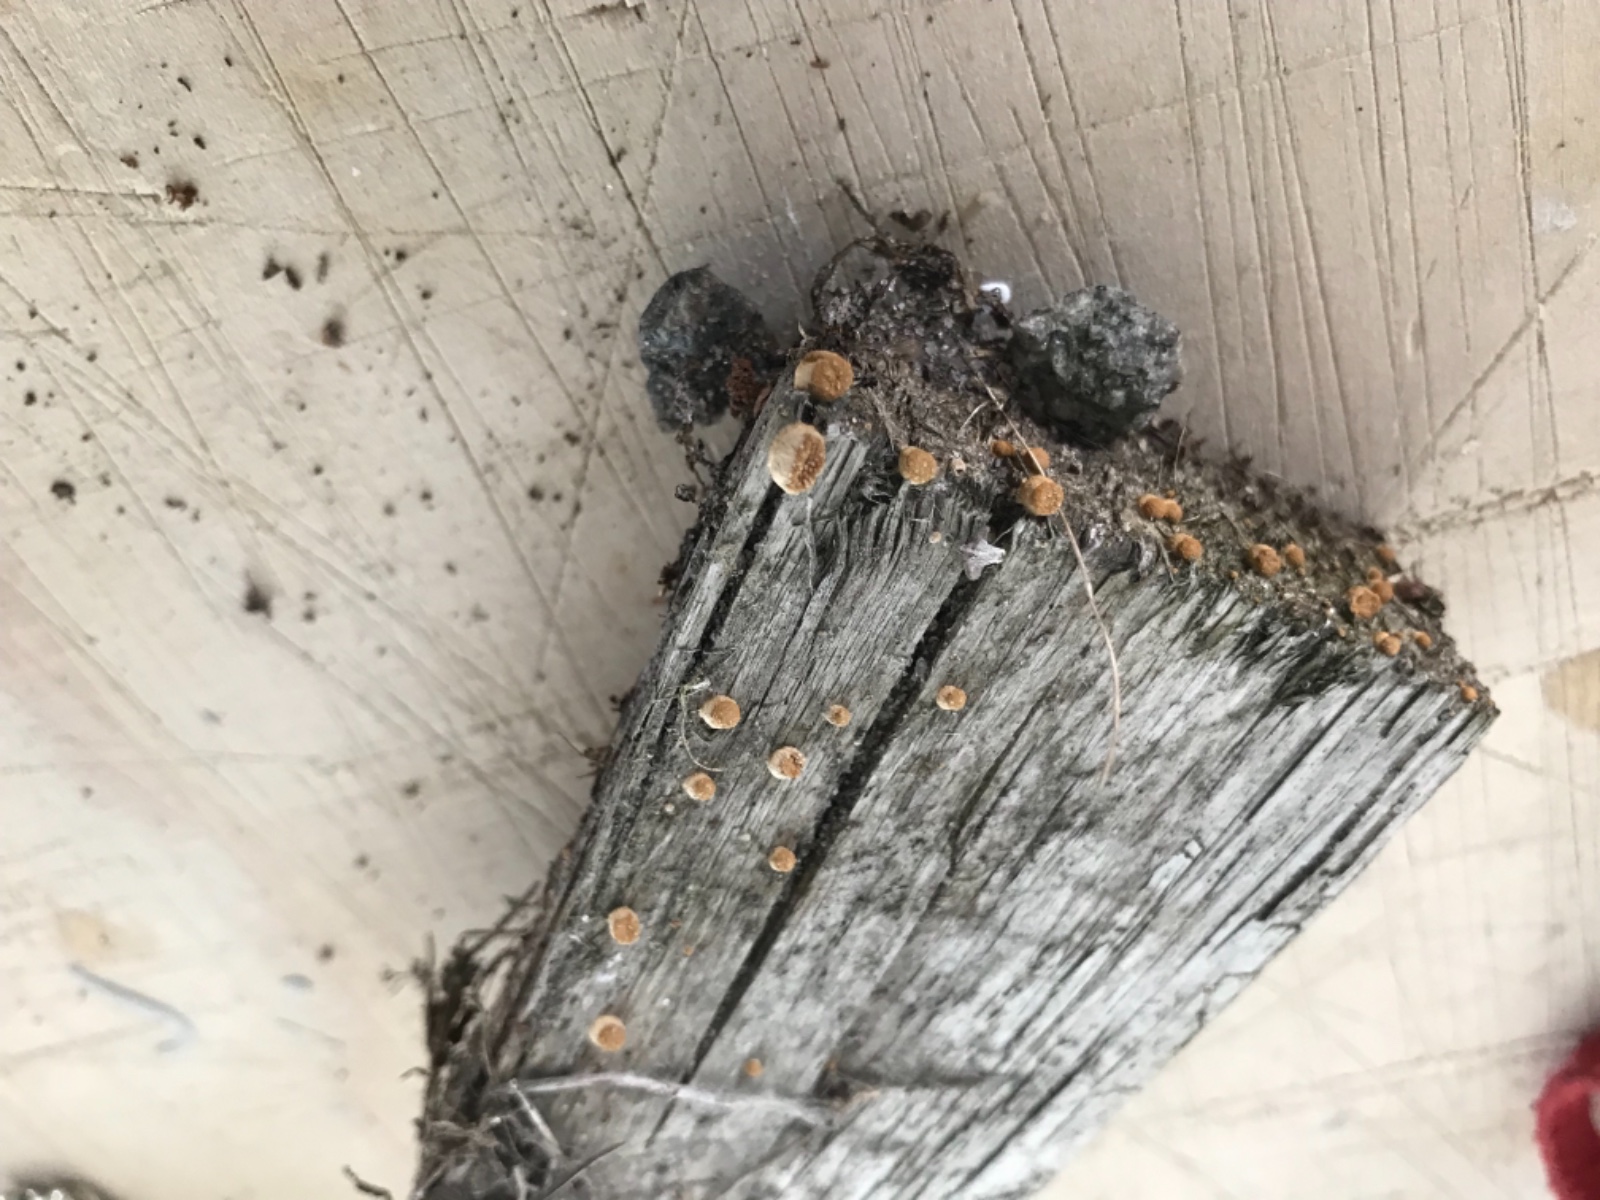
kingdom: Fungi
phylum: Basidiomycota
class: Agaricomycetes
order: Agaricales
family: Nidulariaceae
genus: Crucibulum
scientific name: Crucibulum crucibuliforme
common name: krukkesvamp
